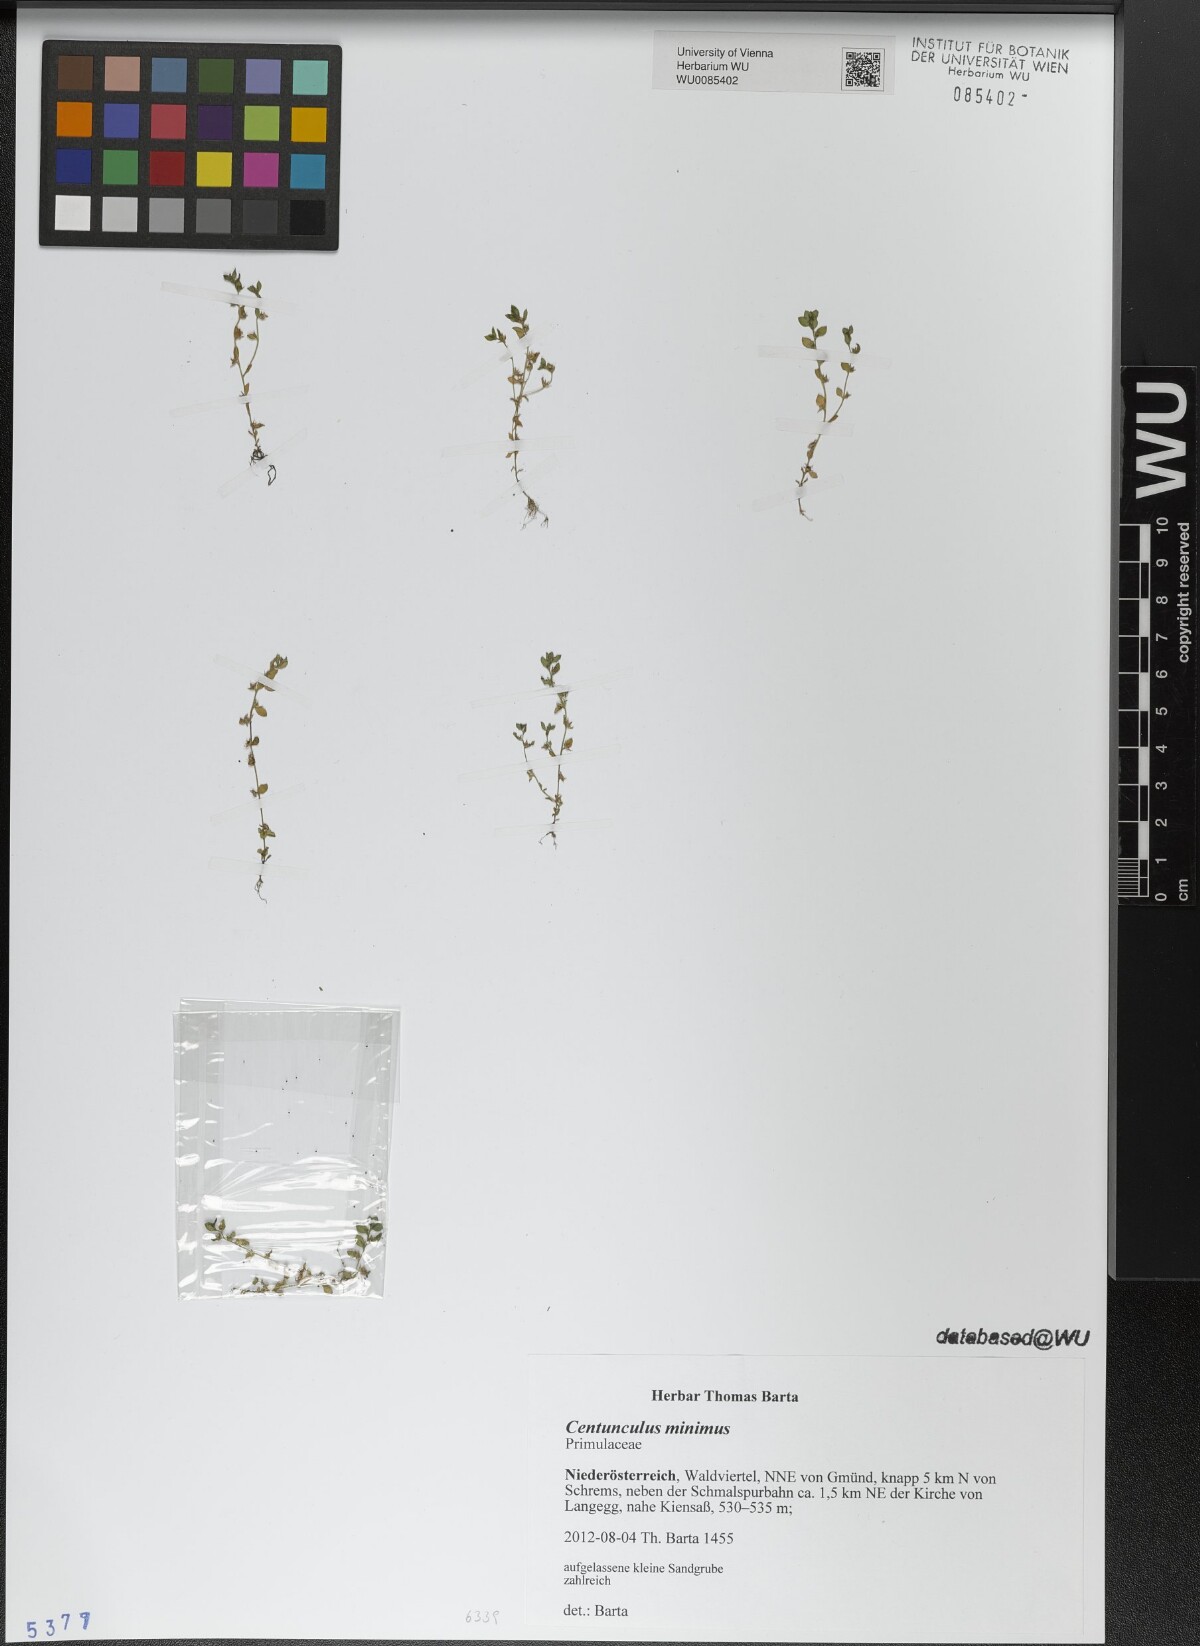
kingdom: Plantae
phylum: Tracheophyta
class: Magnoliopsida
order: Ericales
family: Primulaceae
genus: Lysimachia
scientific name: Lysimachia minima
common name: Chaffweed
